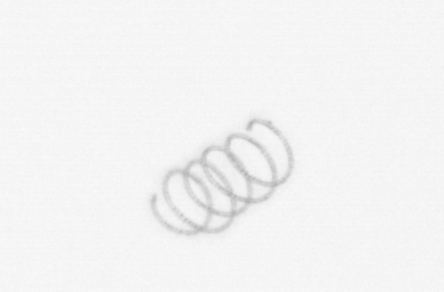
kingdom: Chromista
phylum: Ochrophyta
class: Bacillariophyceae
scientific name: Bacillariophyceae
